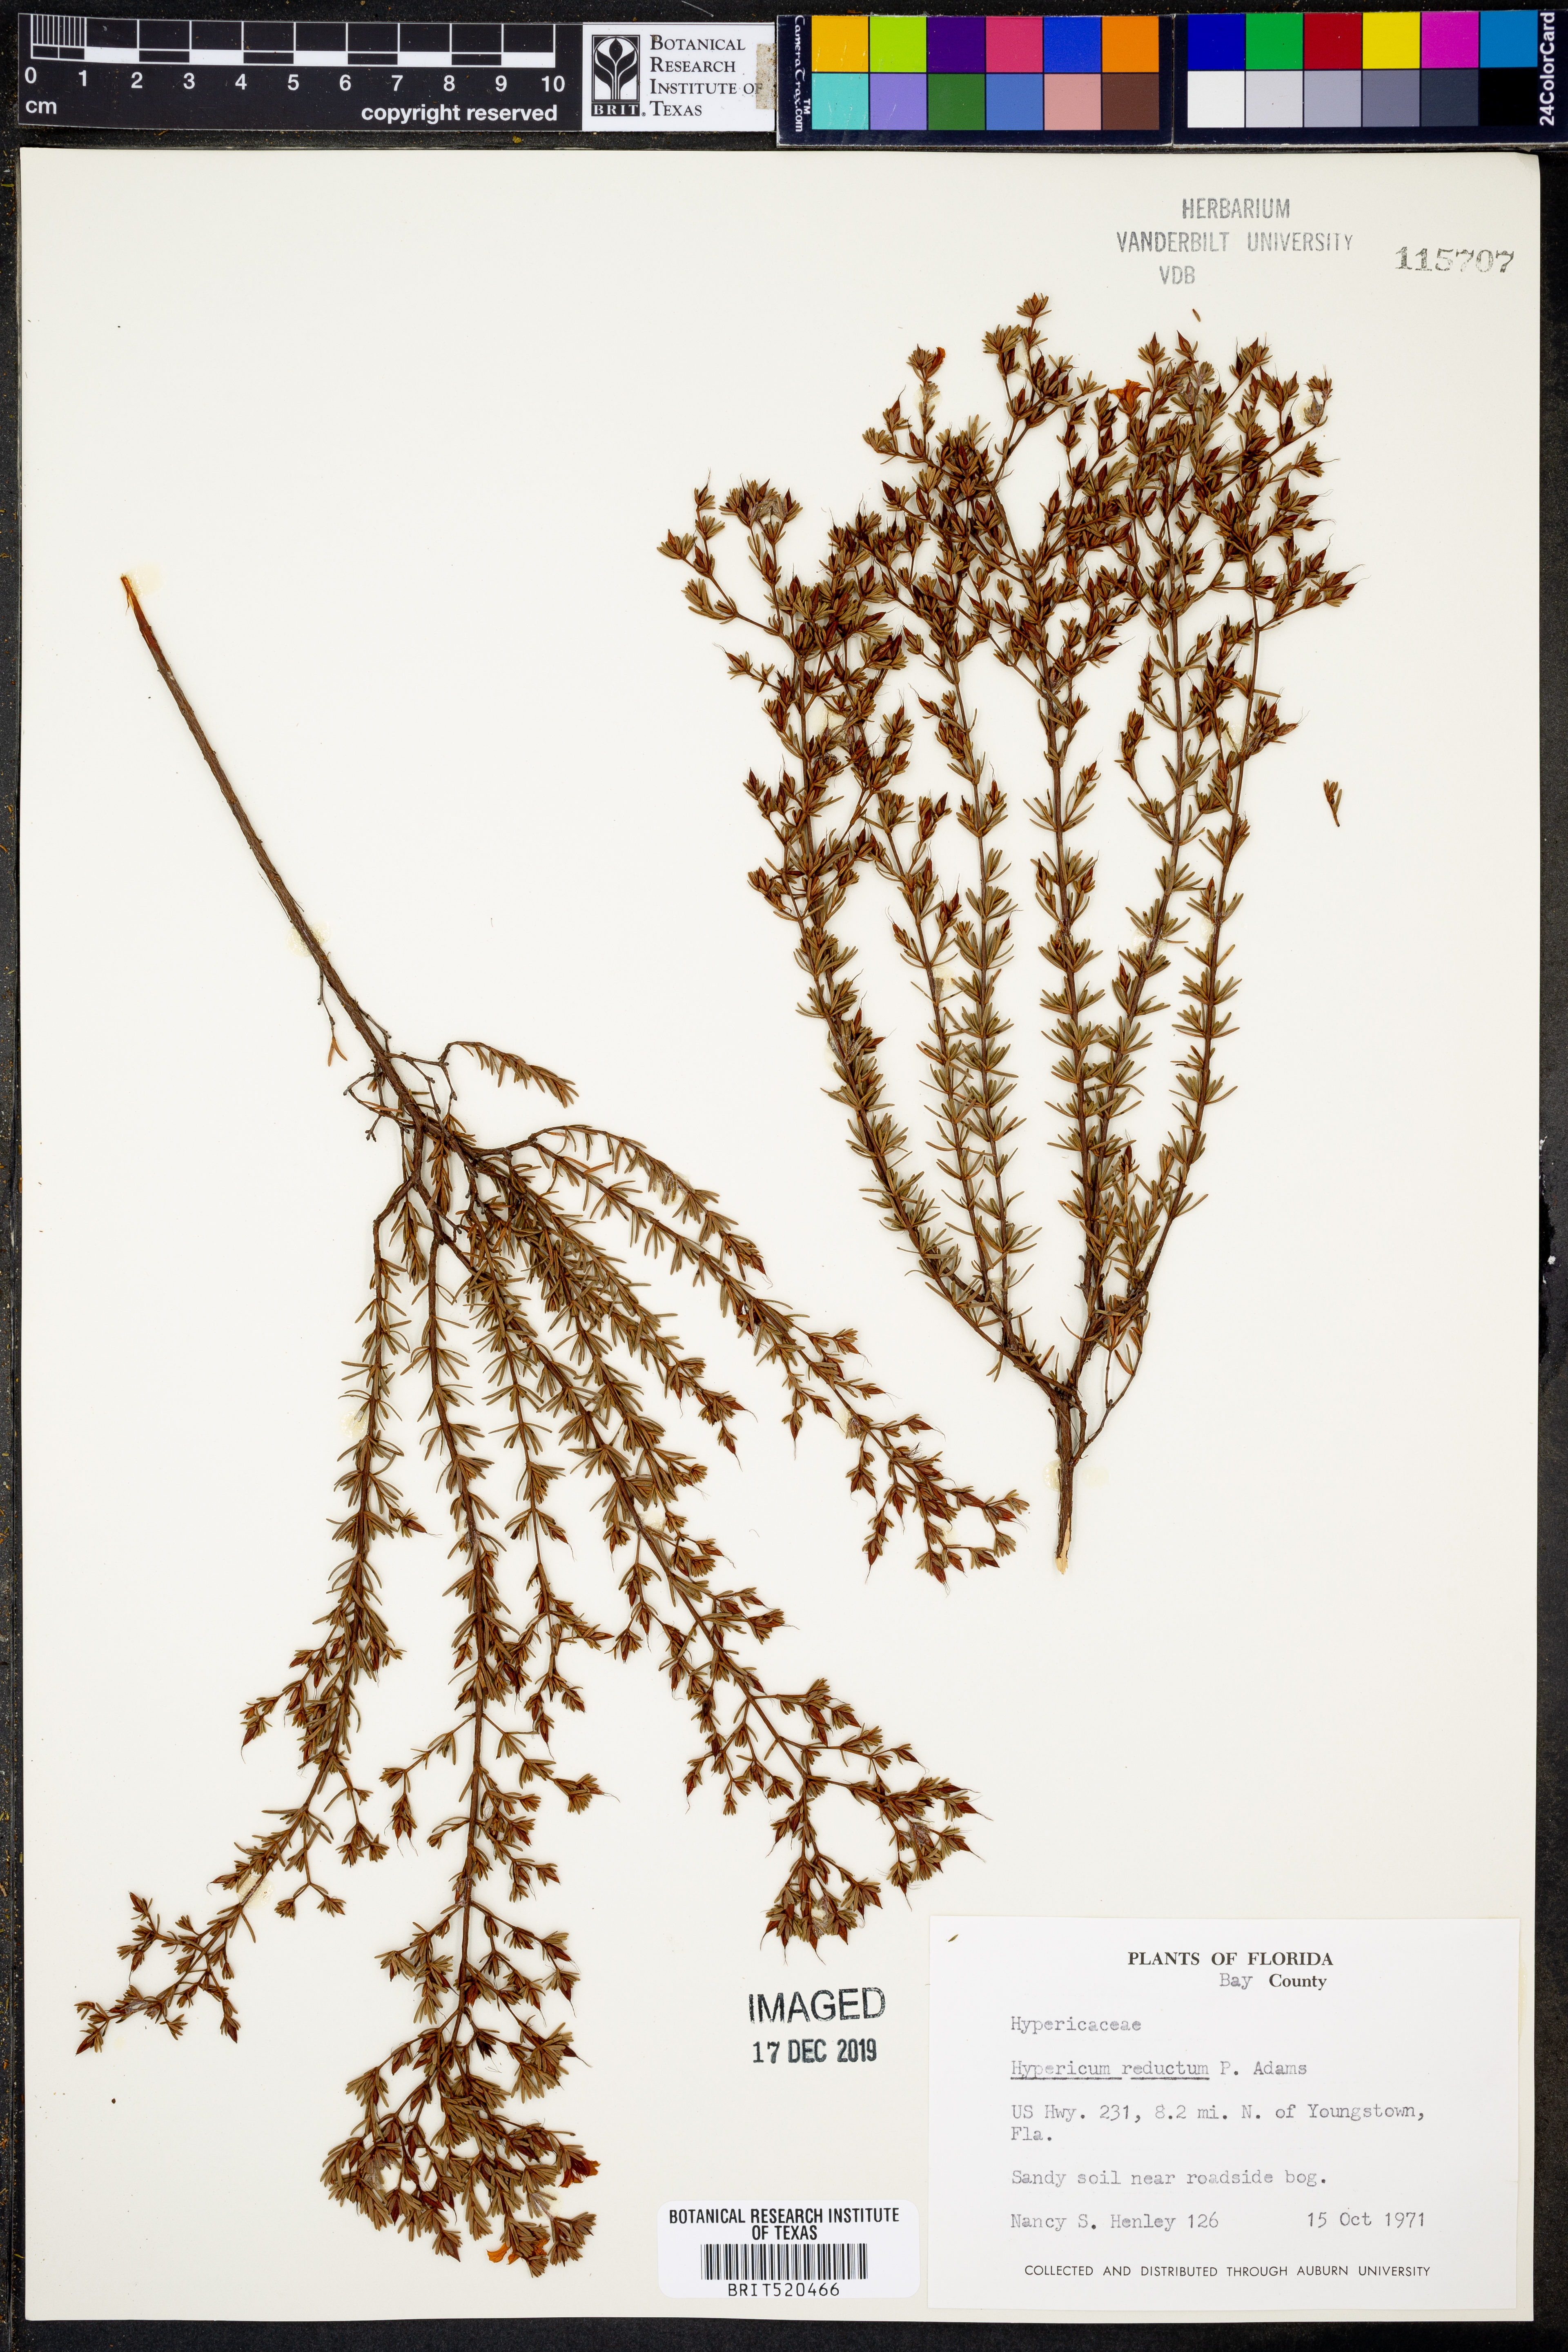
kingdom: Plantae
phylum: Tracheophyta
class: Magnoliopsida
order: Malpighiales
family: Hypericaceae
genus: Hypericum
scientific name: Hypericum tenuifolium
